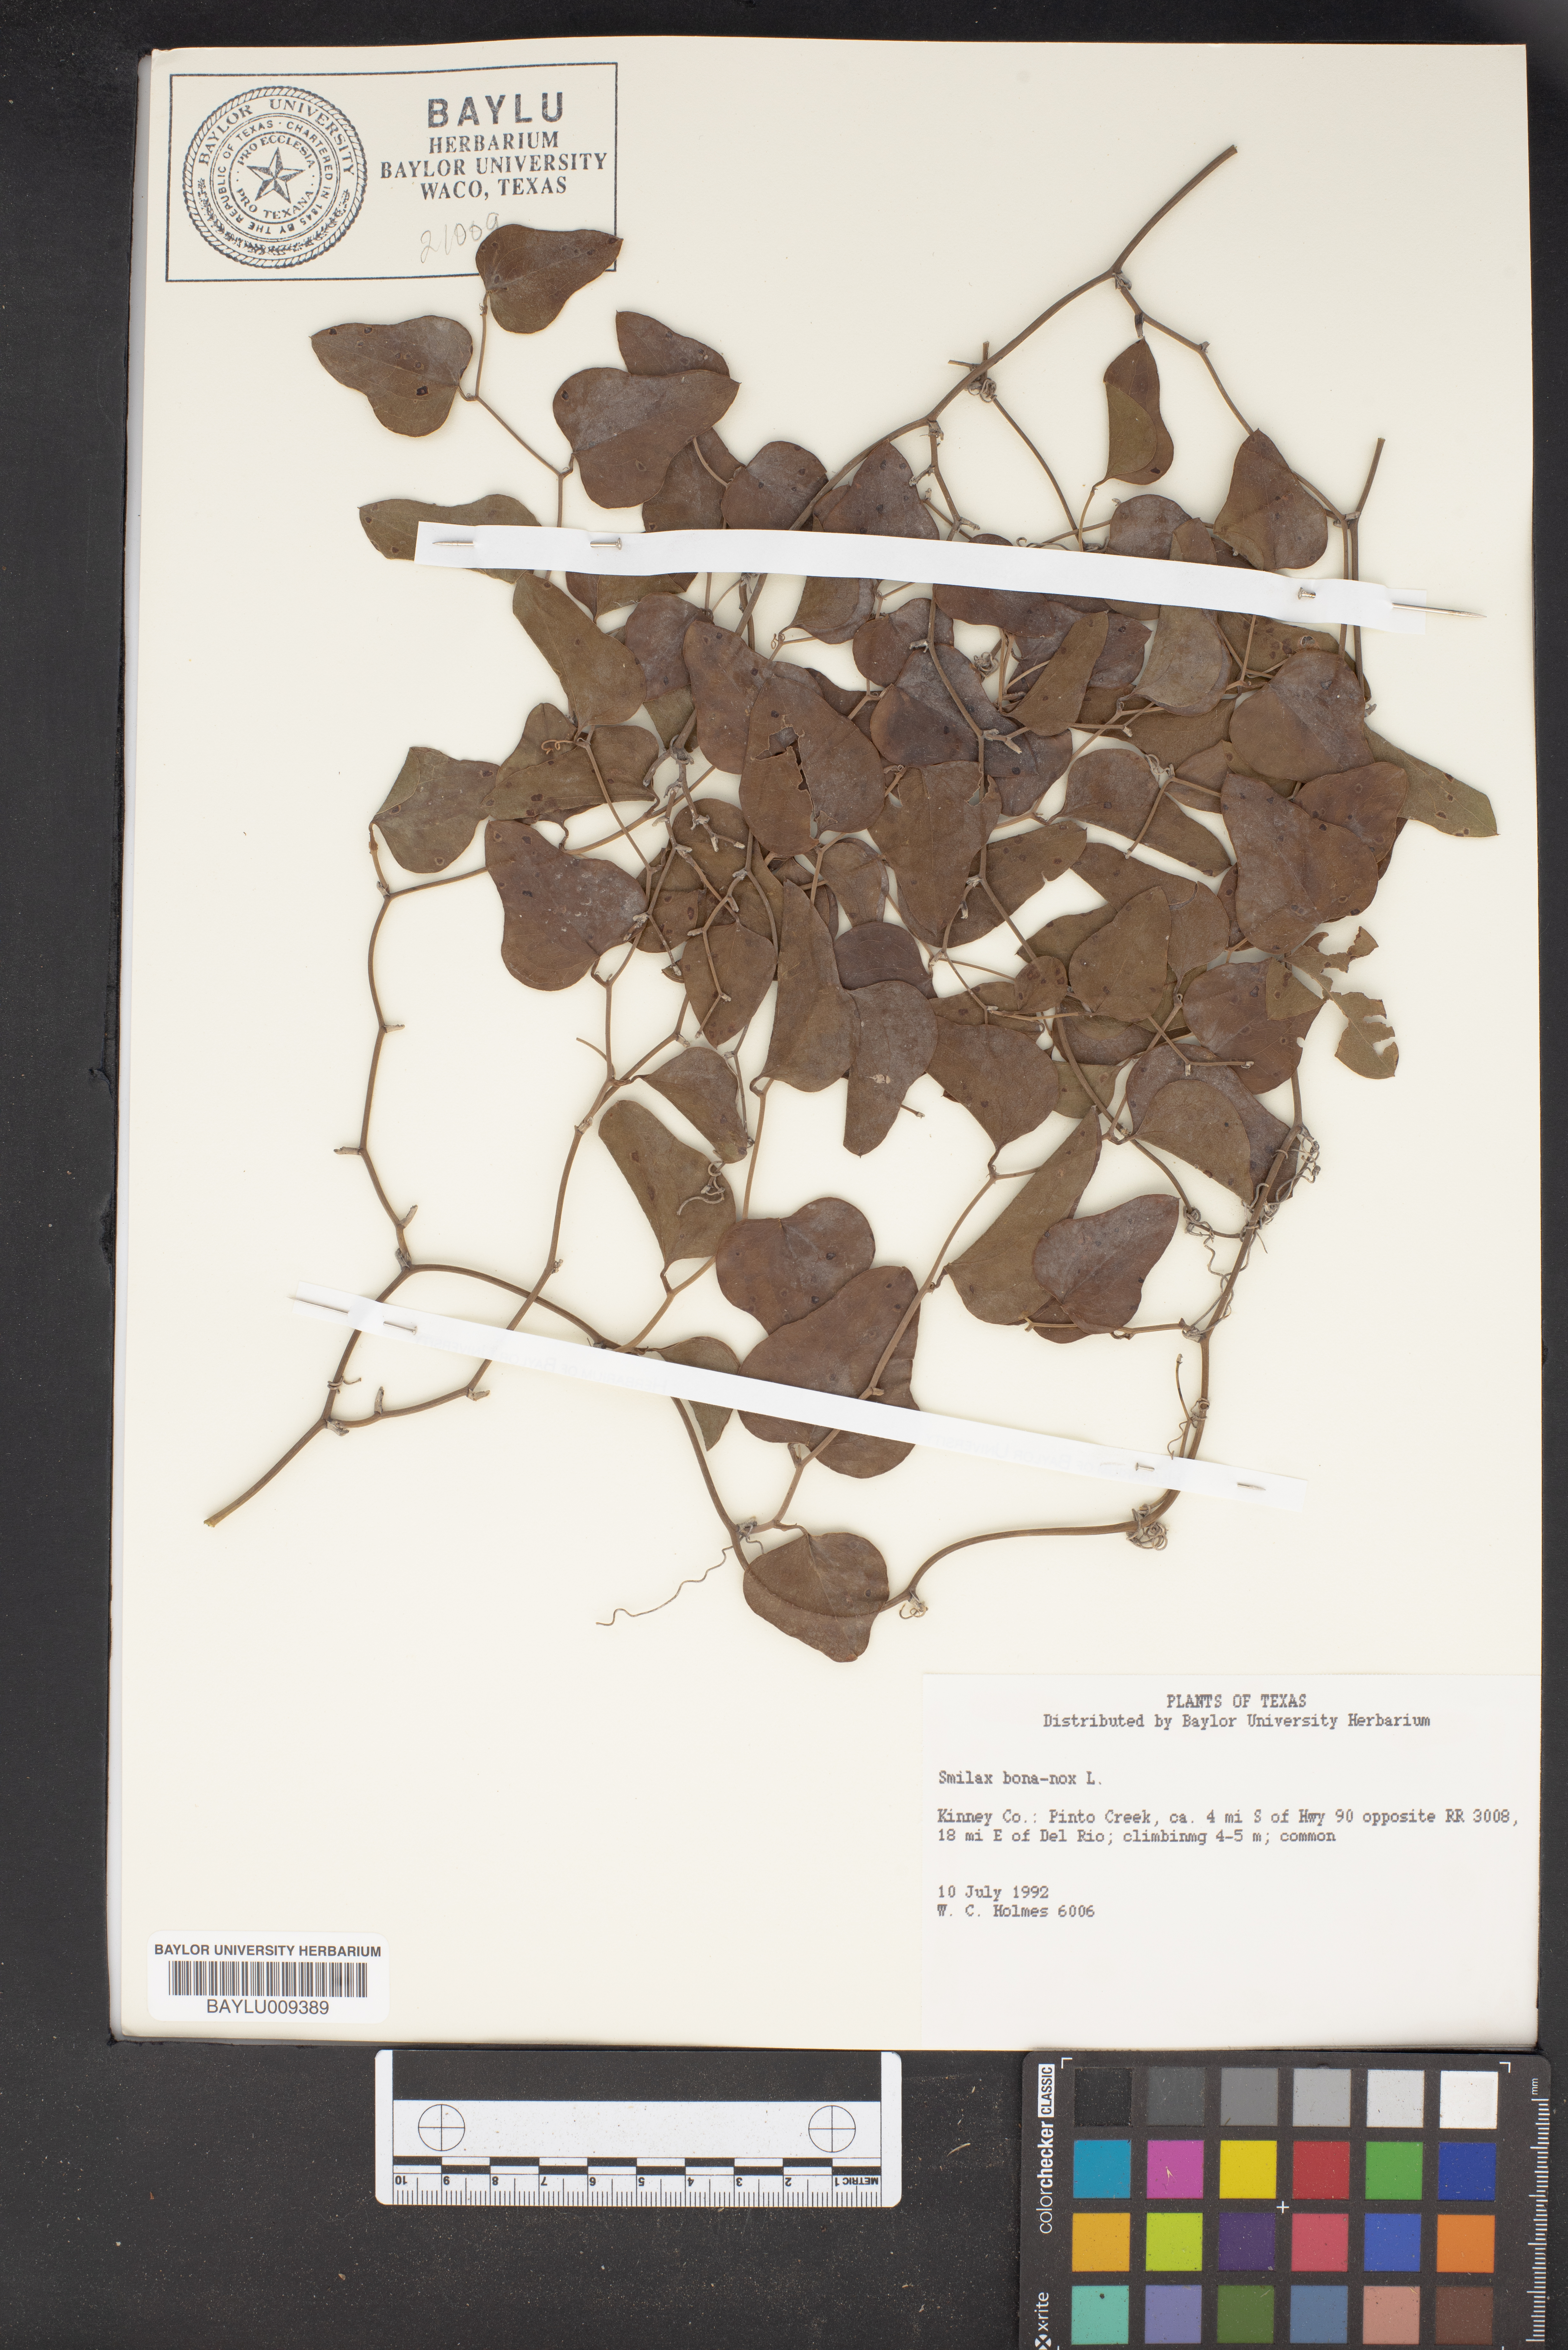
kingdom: Plantae
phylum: Tracheophyta
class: Liliopsida
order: Liliales
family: Smilacaceae
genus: Smilax
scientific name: Smilax bona-nox
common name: Catbrier
